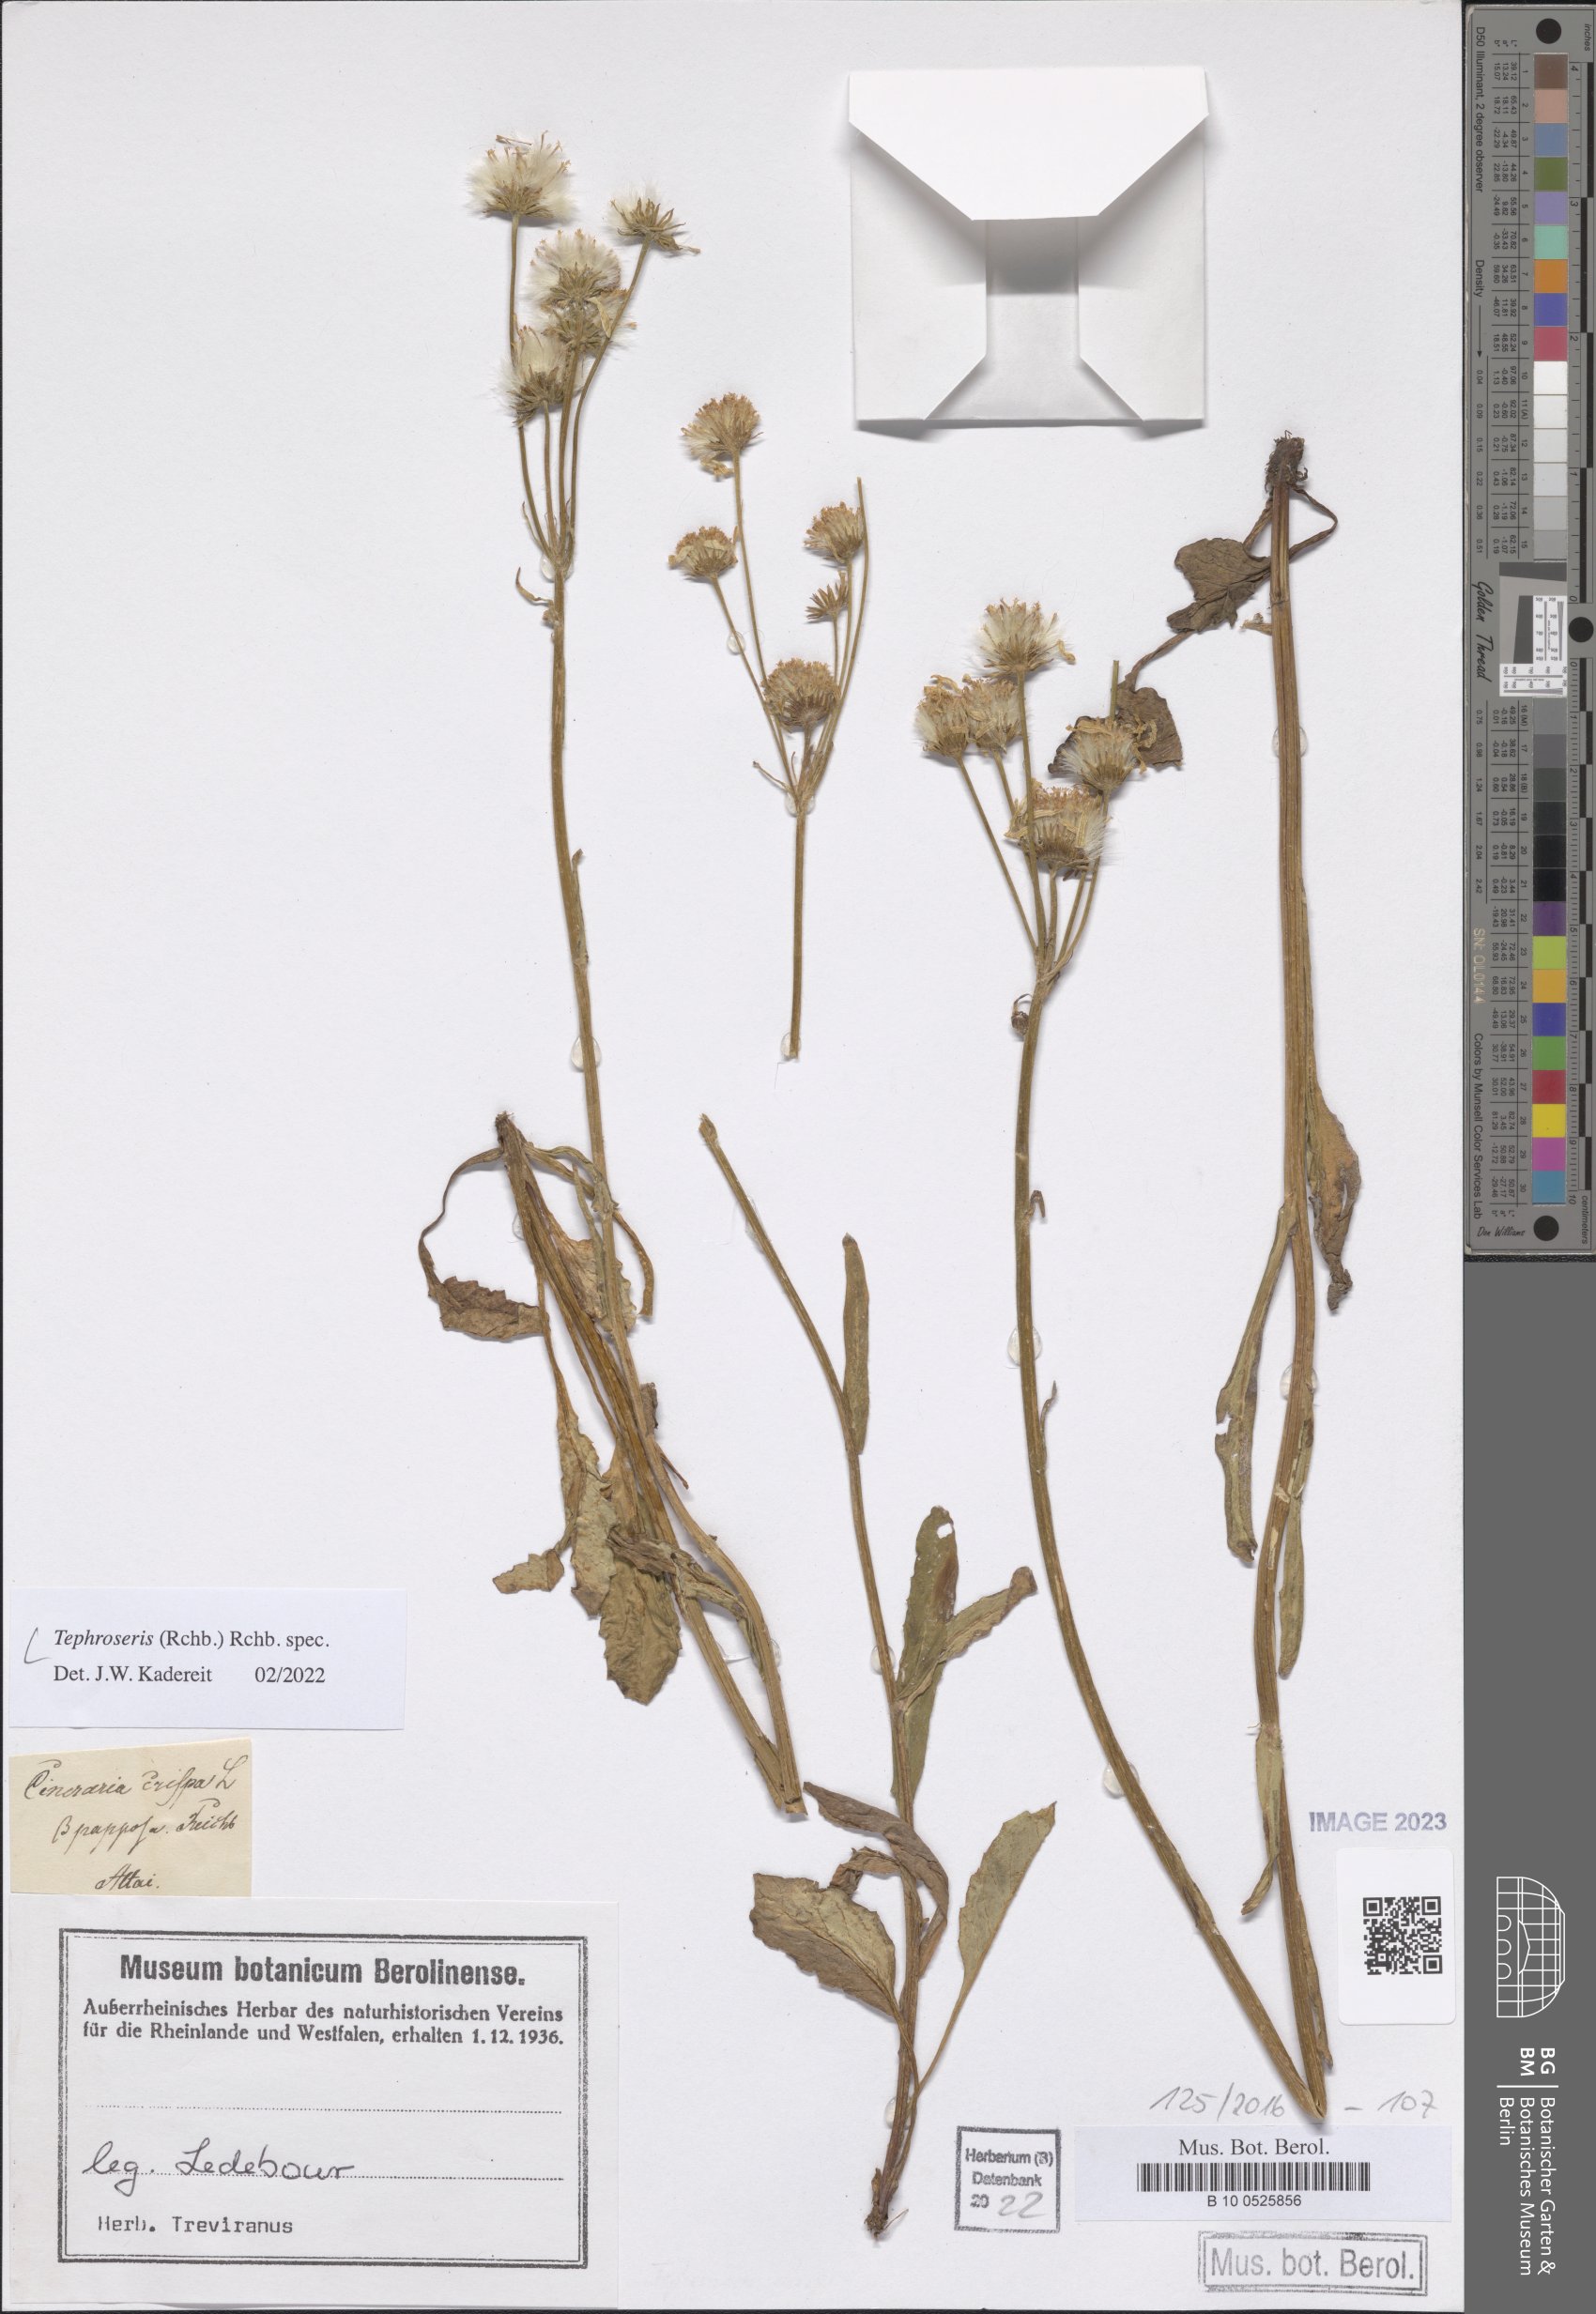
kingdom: Plantae
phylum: Tracheophyta
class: Magnoliopsida
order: Asterales
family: Asteraceae
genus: Tephroseris
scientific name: Tephroseris
